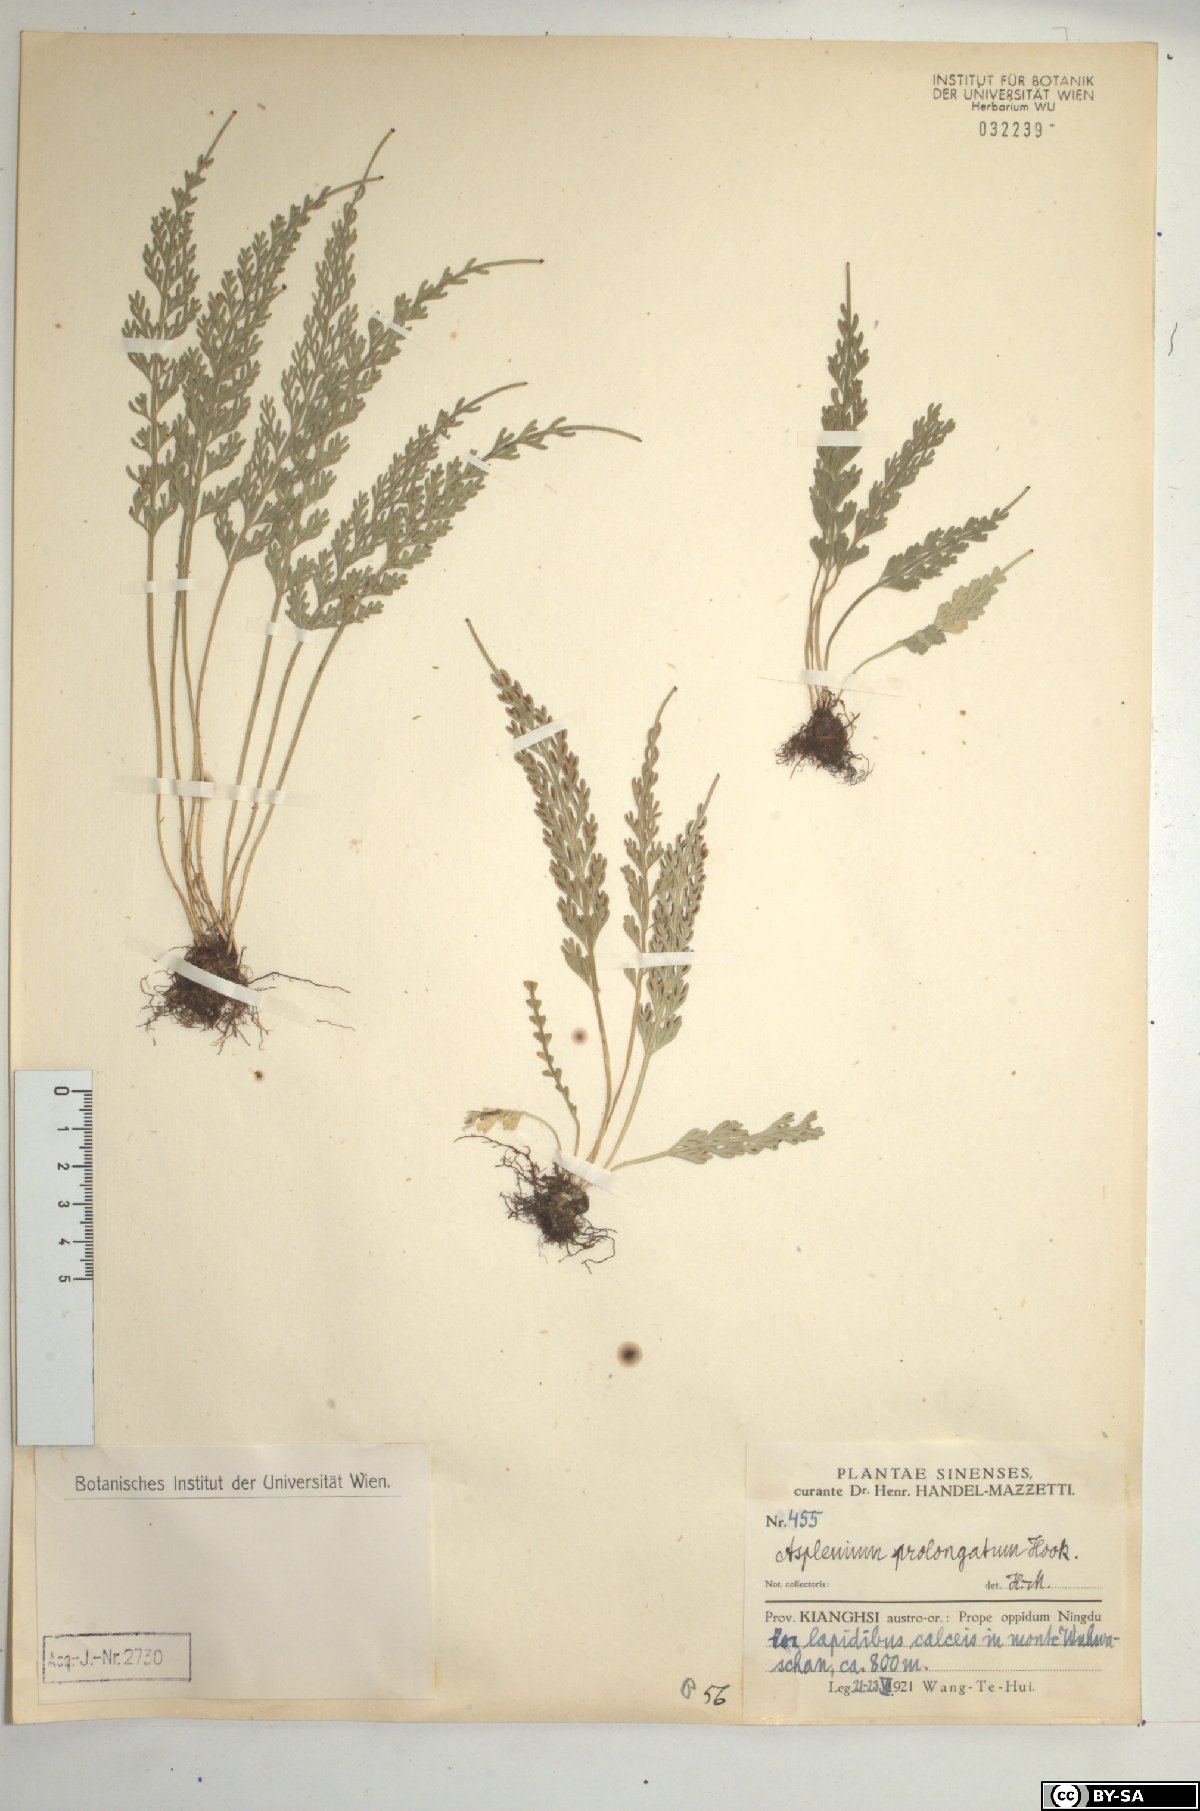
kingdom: Plantae
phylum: Tracheophyta
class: Polypodiopsida
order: Polypodiales
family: Aspleniaceae
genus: Asplenium
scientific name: Asplenium prolongatum
